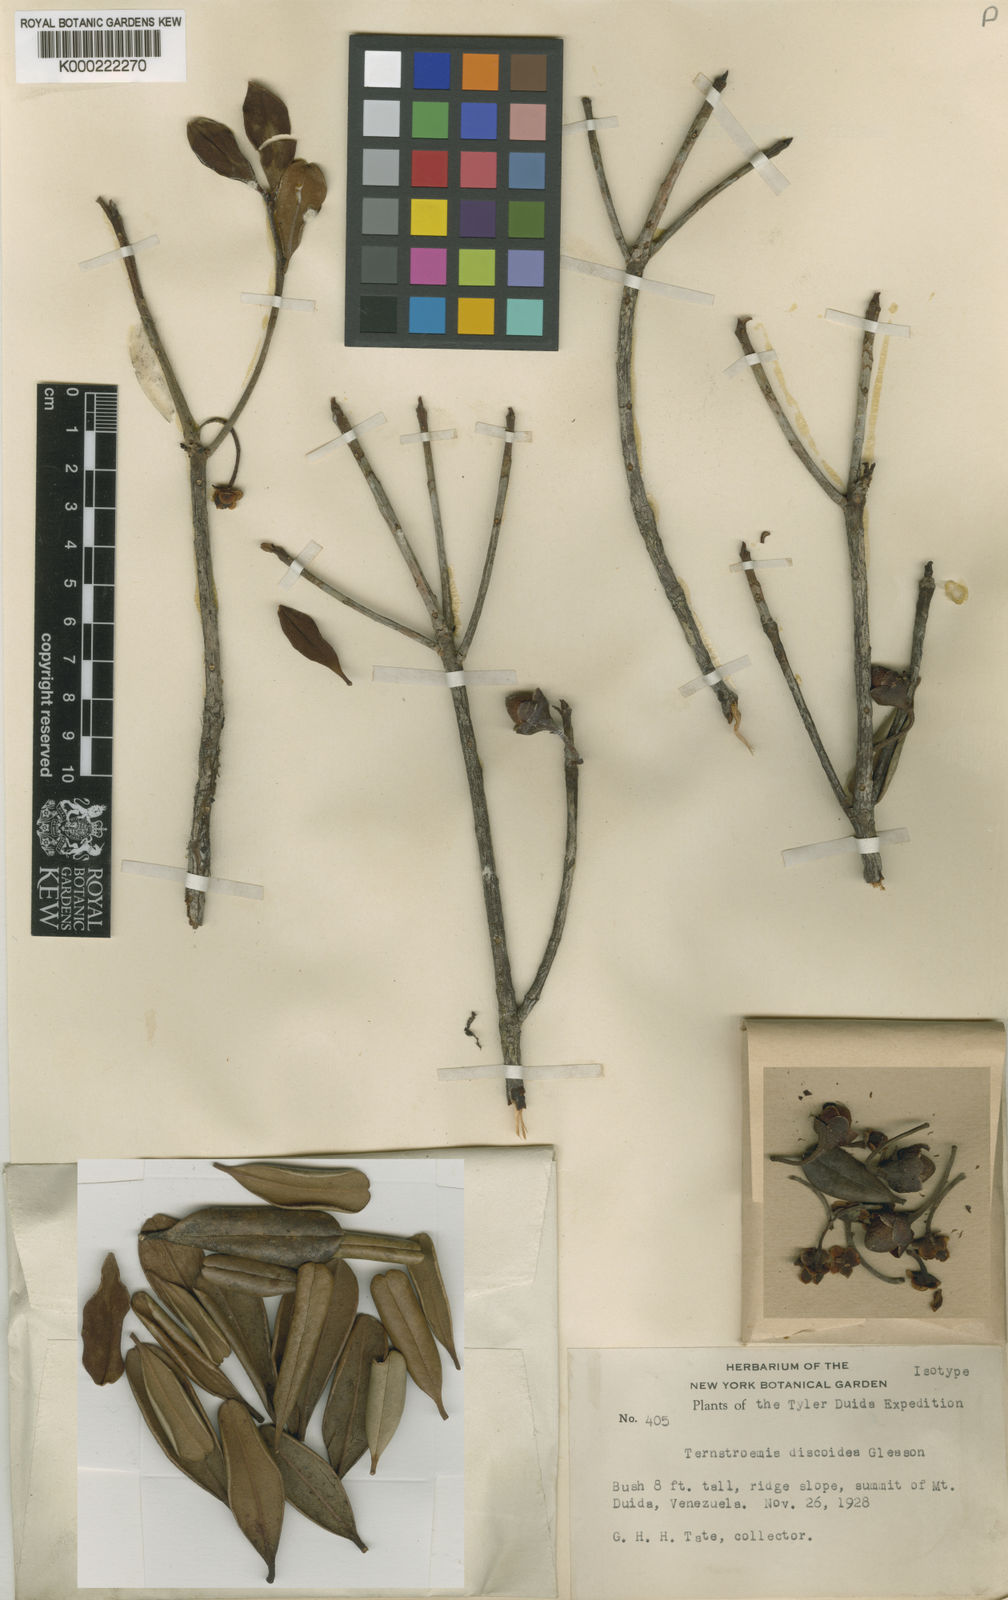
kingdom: Plantae
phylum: Tracheophyta
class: Magnoliopsida
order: Ericales
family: Pentaphylacaceae
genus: Ternstroemia
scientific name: Ternstroemia discoidea
